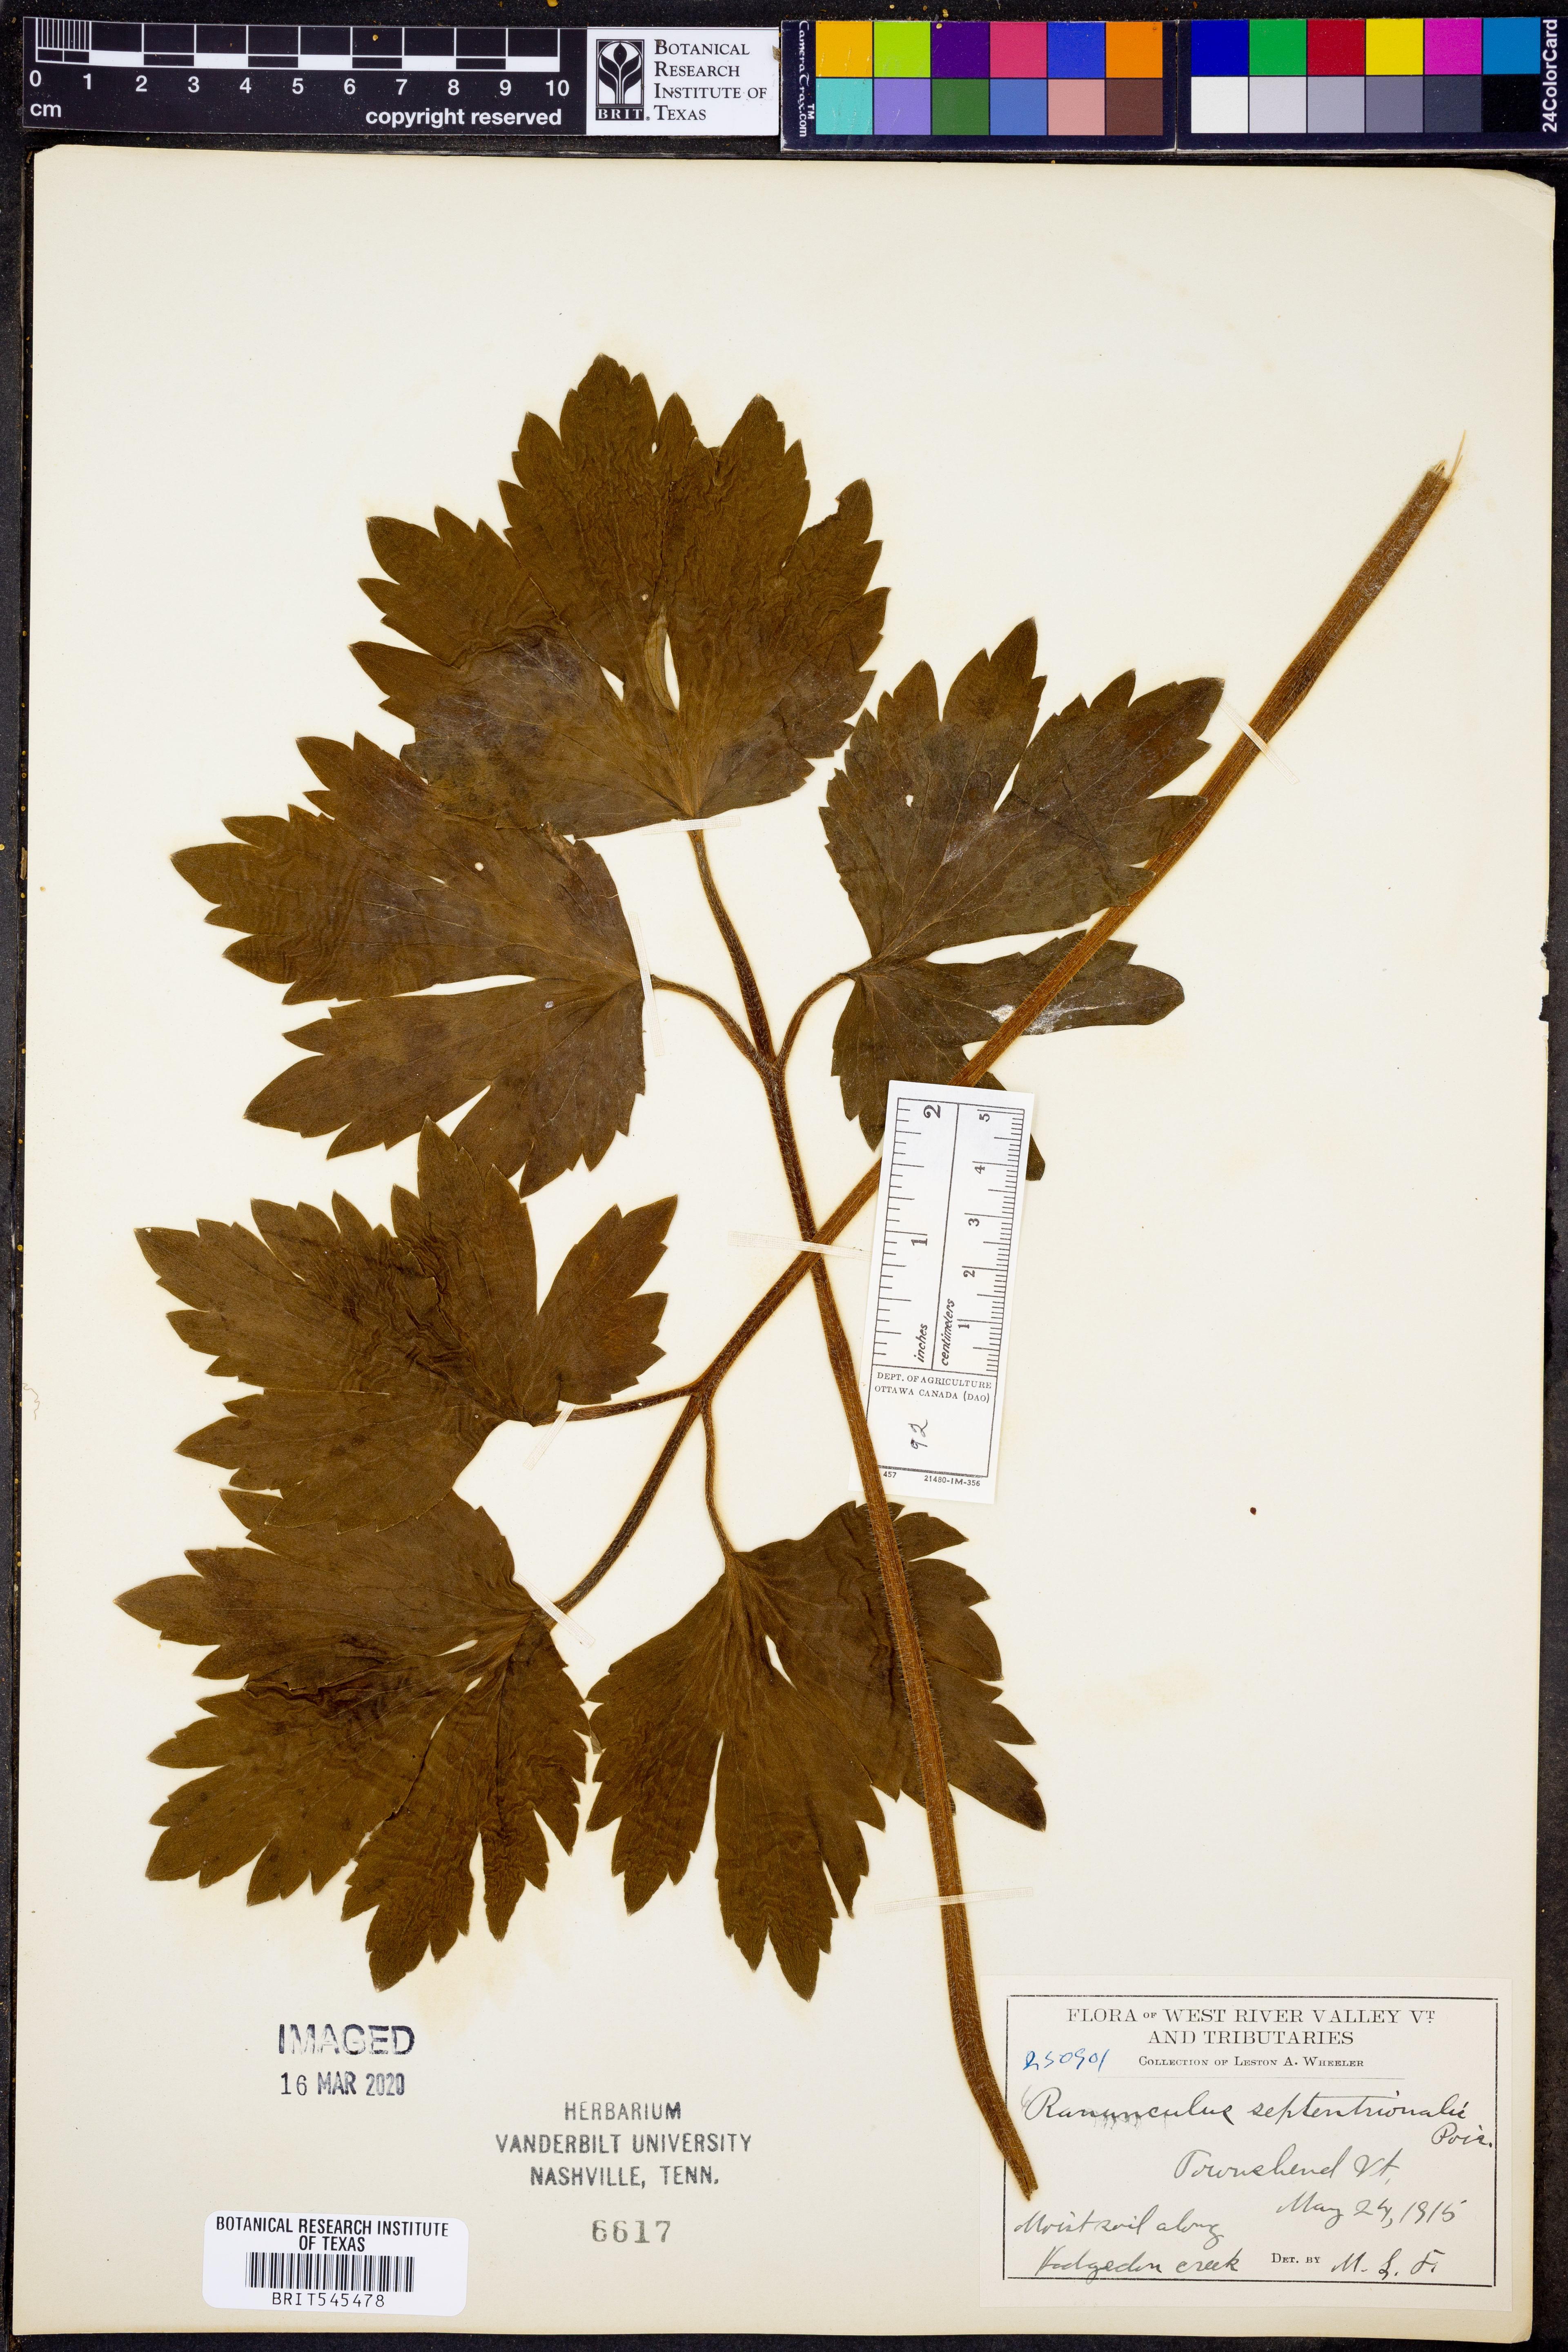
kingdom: Plantae
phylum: Tracheophyta
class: Magnoliopsida
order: Ranunculales
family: Ranunculaceae
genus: Ranunculus
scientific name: Ranunculus hispidus
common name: Bristly buttercup
